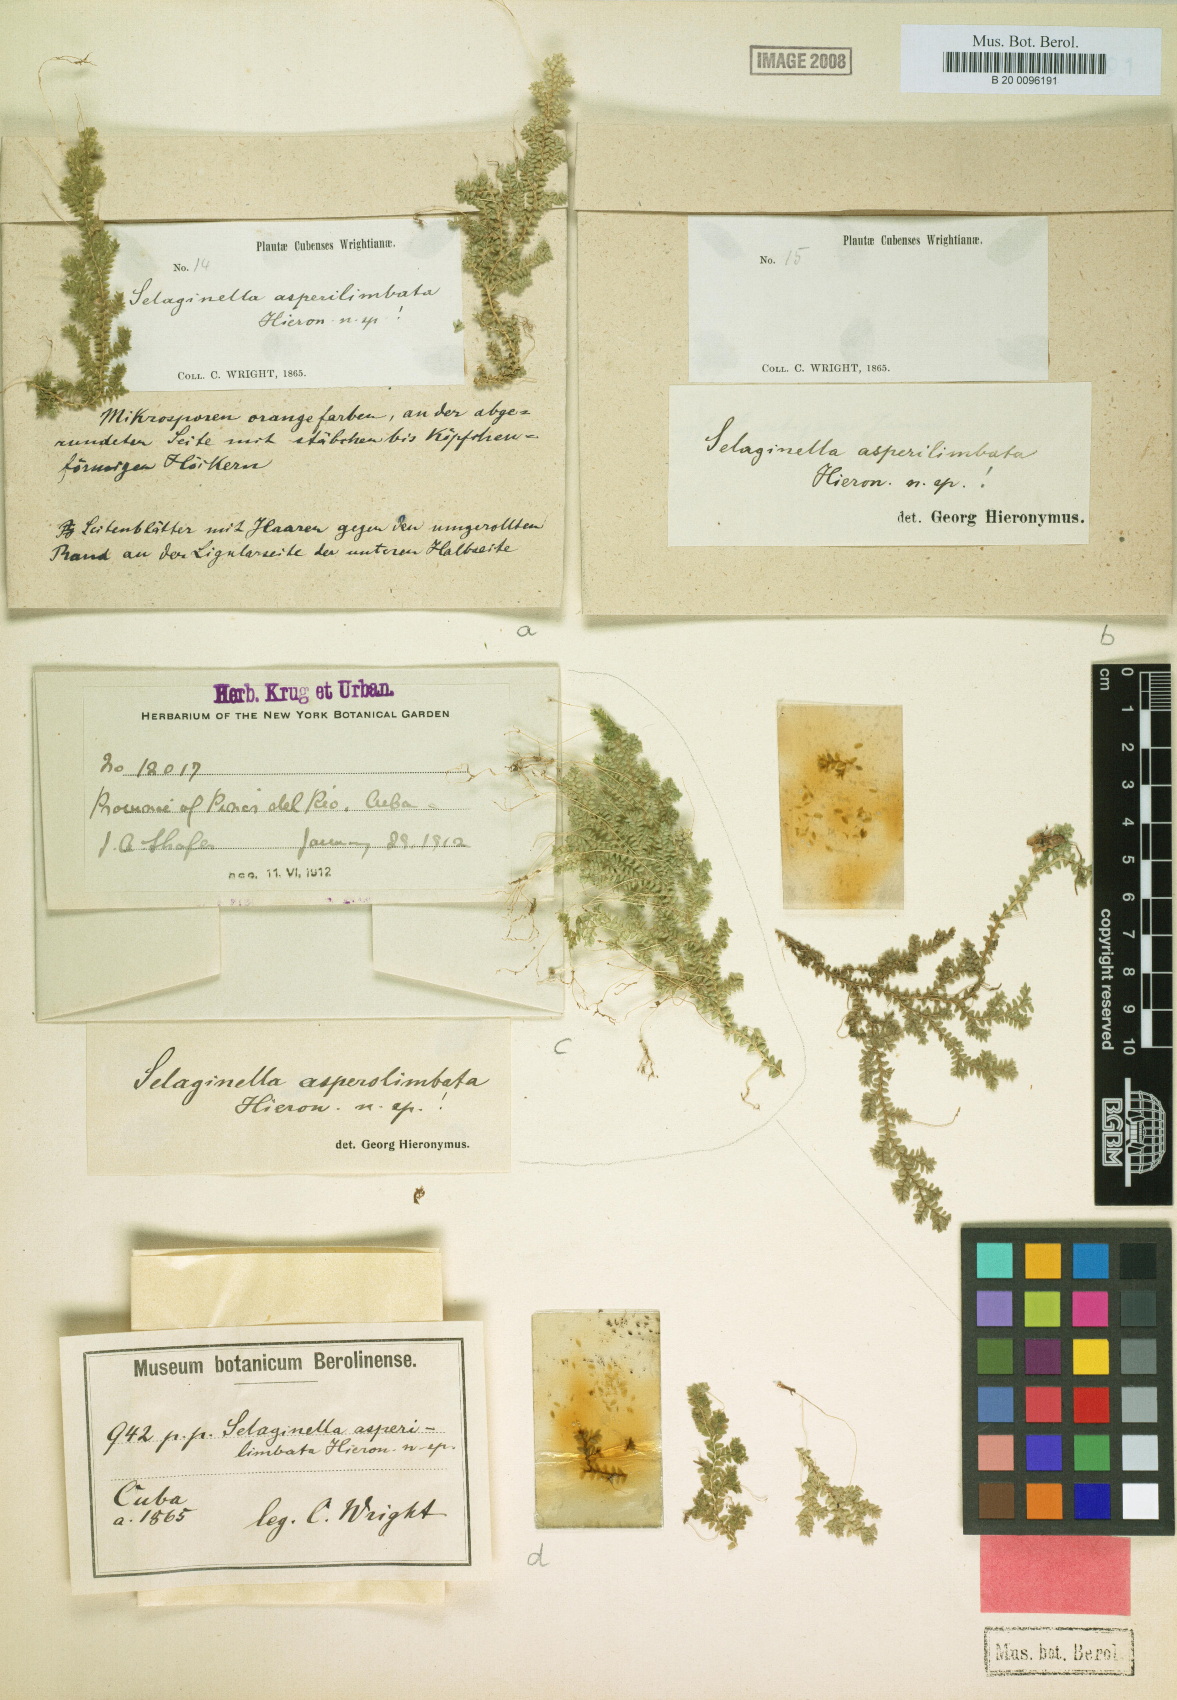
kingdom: Plantae
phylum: Tracheophyta
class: Lycopodiopsida
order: Selaginellales
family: Selaginellaceae
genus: Selaginella
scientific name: Selaginella urquiolae
